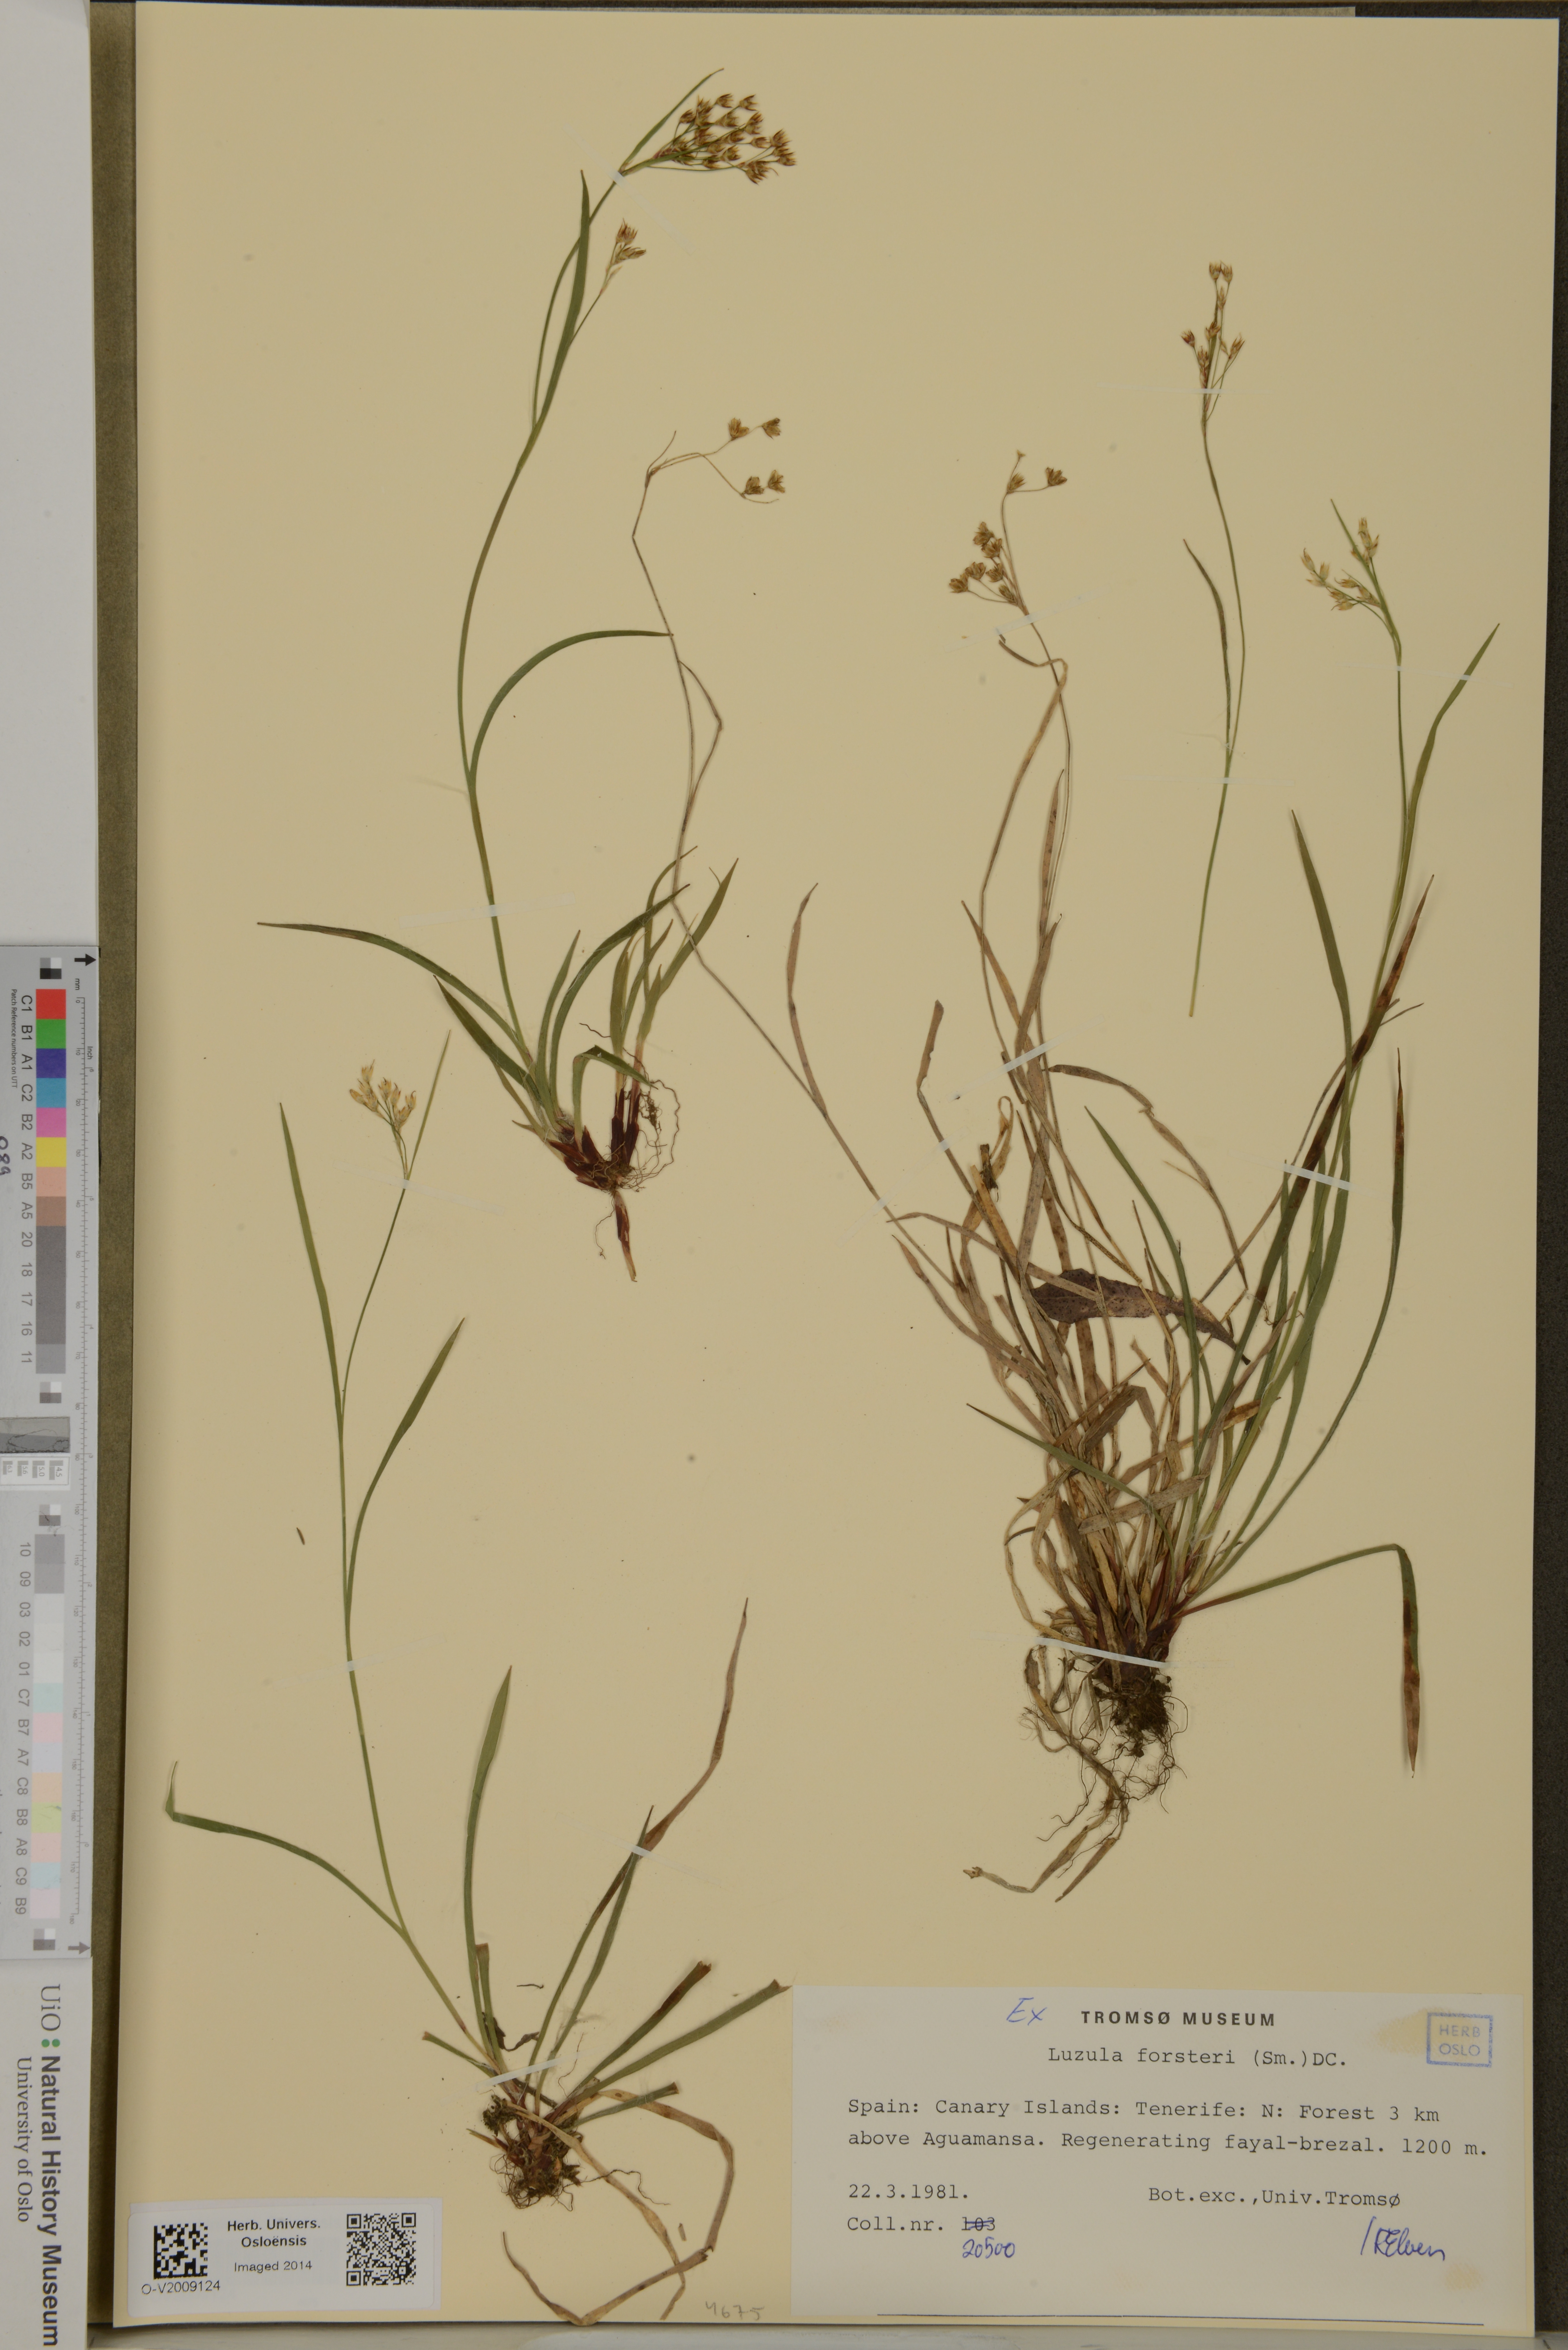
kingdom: Plantae
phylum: Tracheophyta
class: Liliopsida
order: Poales
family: Juncaceae
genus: Luzula
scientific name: Luzula forsteri
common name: Southern wood-rush
